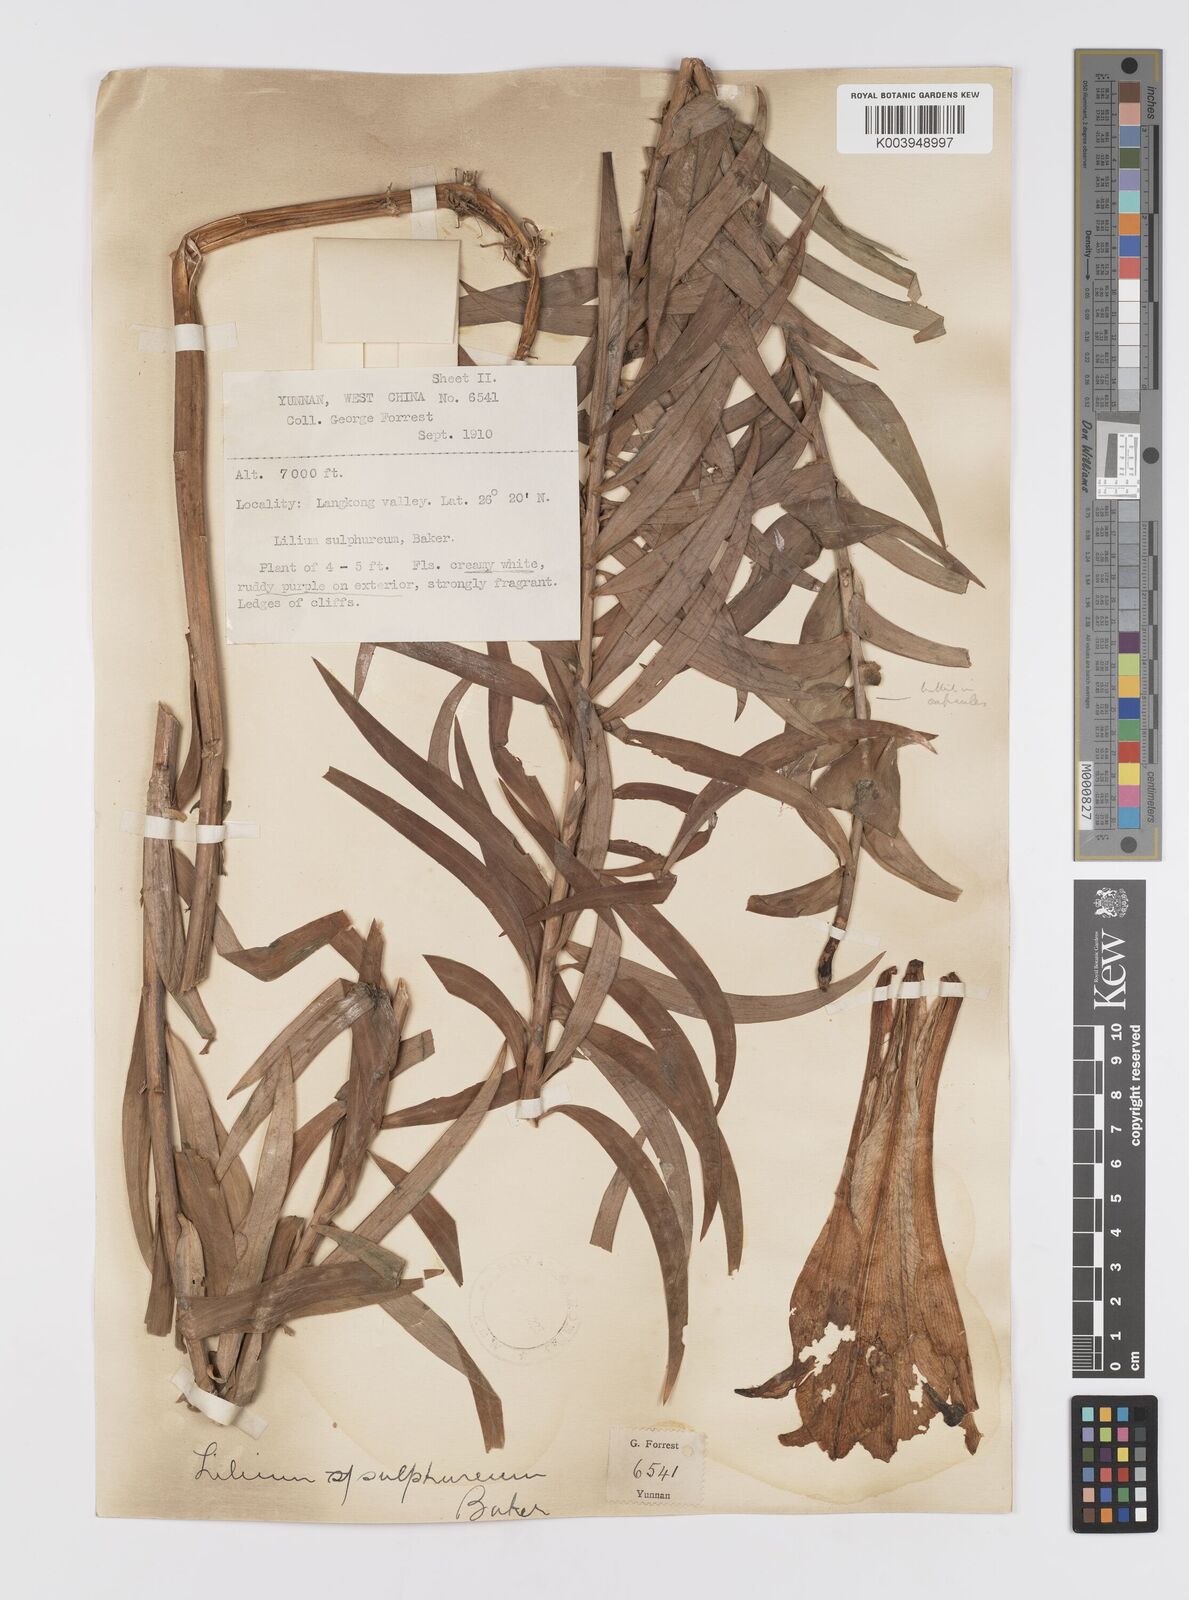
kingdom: Plantae
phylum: Tracheophyta
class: Liliopsida
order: Liliales
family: Liliaceae
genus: Lilium
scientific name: Lilium sulphureum
